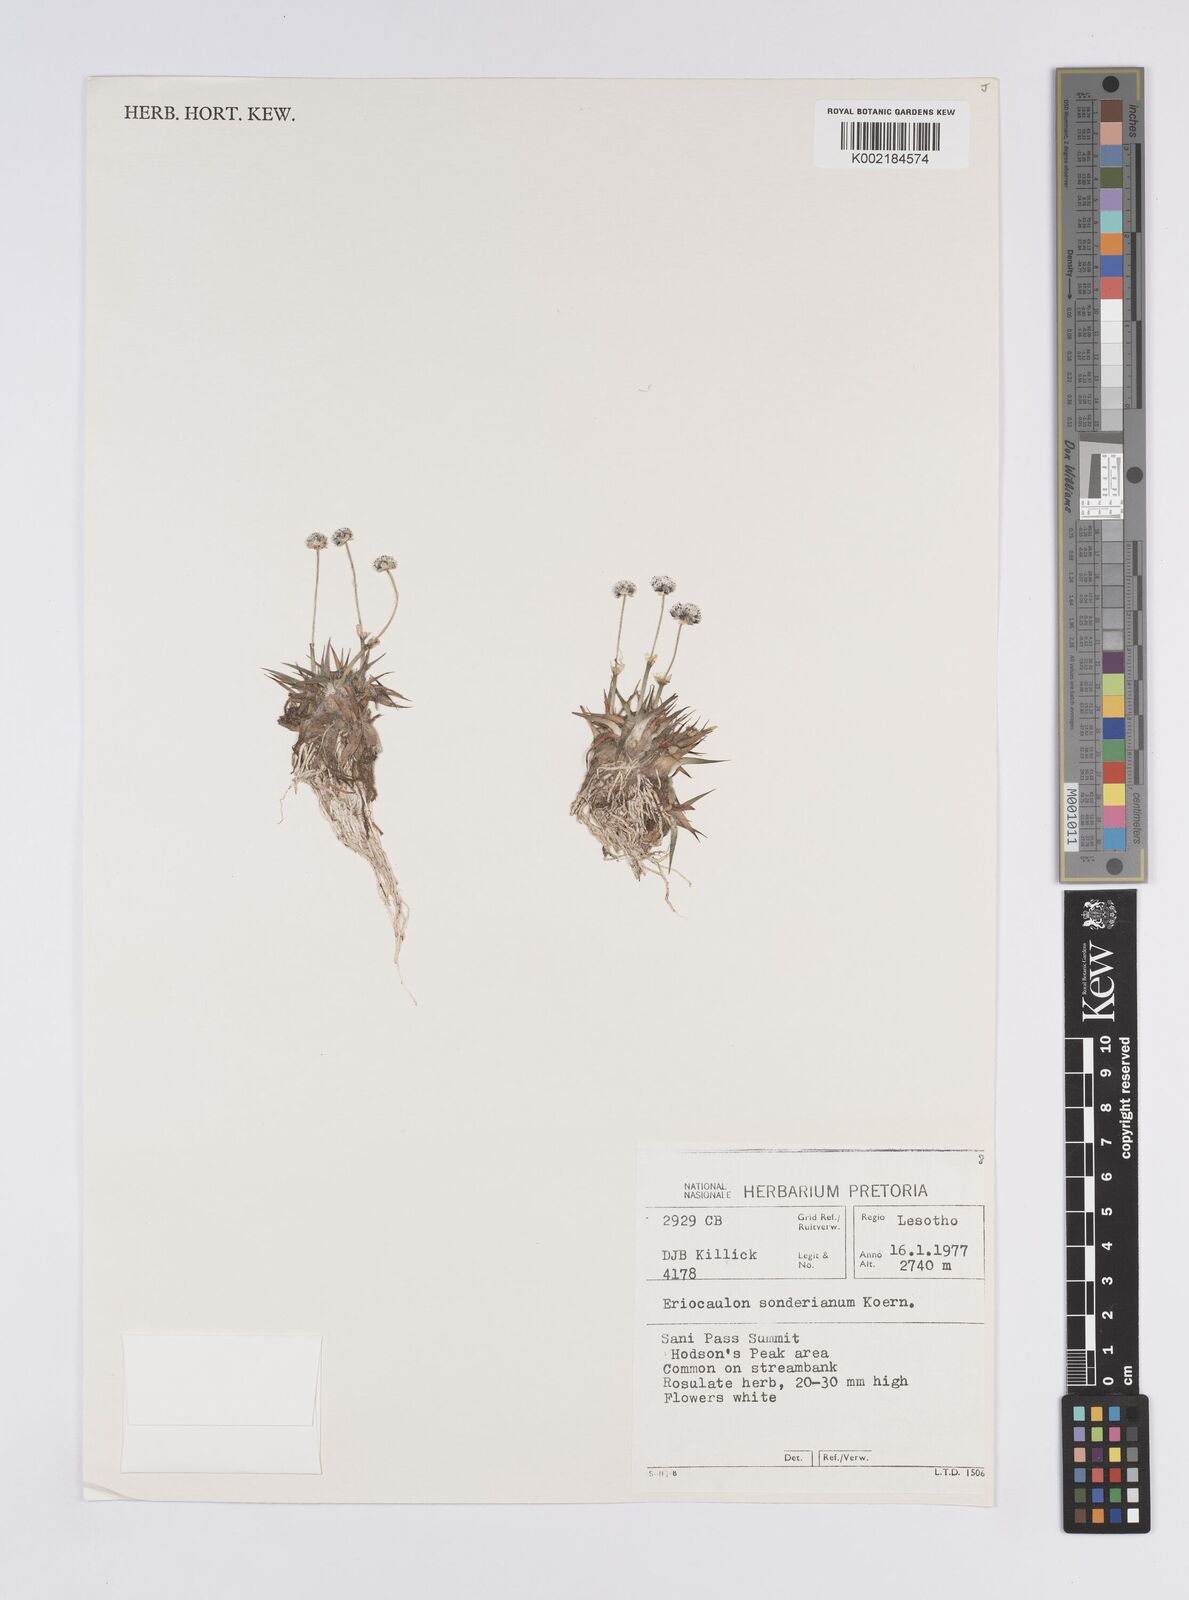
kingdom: Plantae
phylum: Tracheophyta
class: Liliopsida
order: Poales
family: Eriocaulaceae
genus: Eriocaulon
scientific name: Eriocaulon sonderianum
